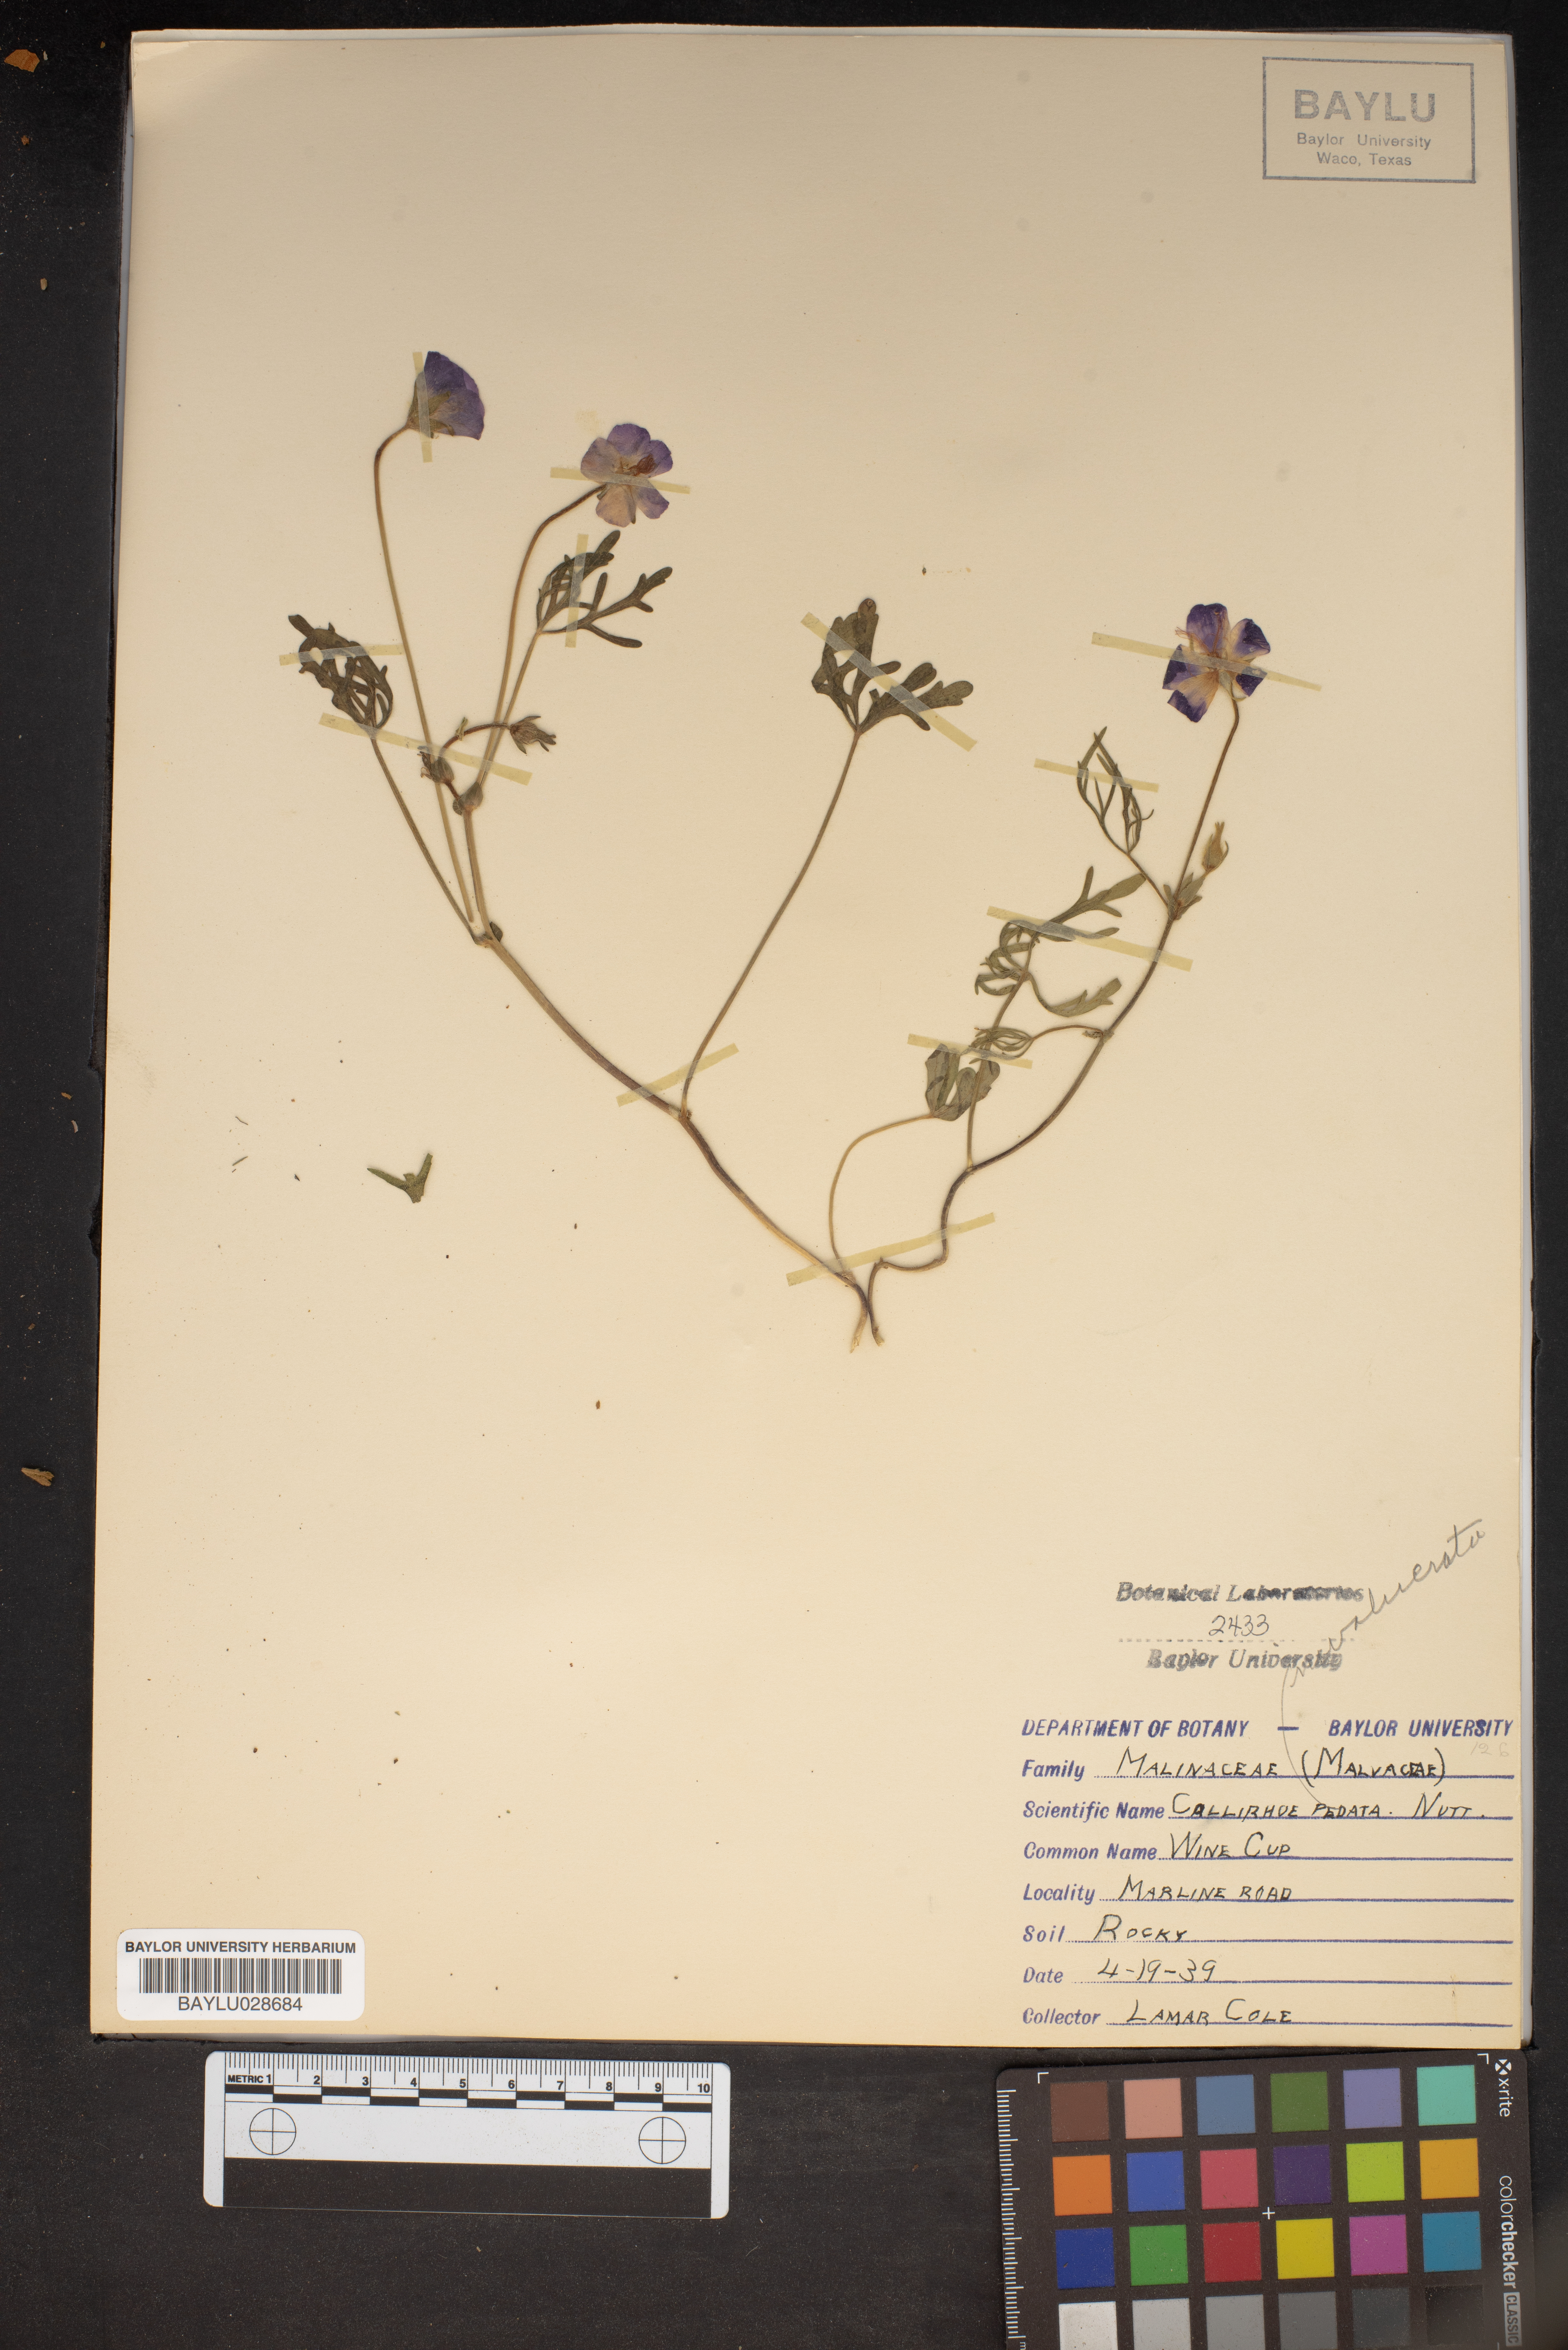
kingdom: Plantae
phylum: Tracheophyta
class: Magnoliopsida
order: Malvales
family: Malvaceae
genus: Callirhoe
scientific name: Callirhoe pedata
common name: Finger poppy-mallow
